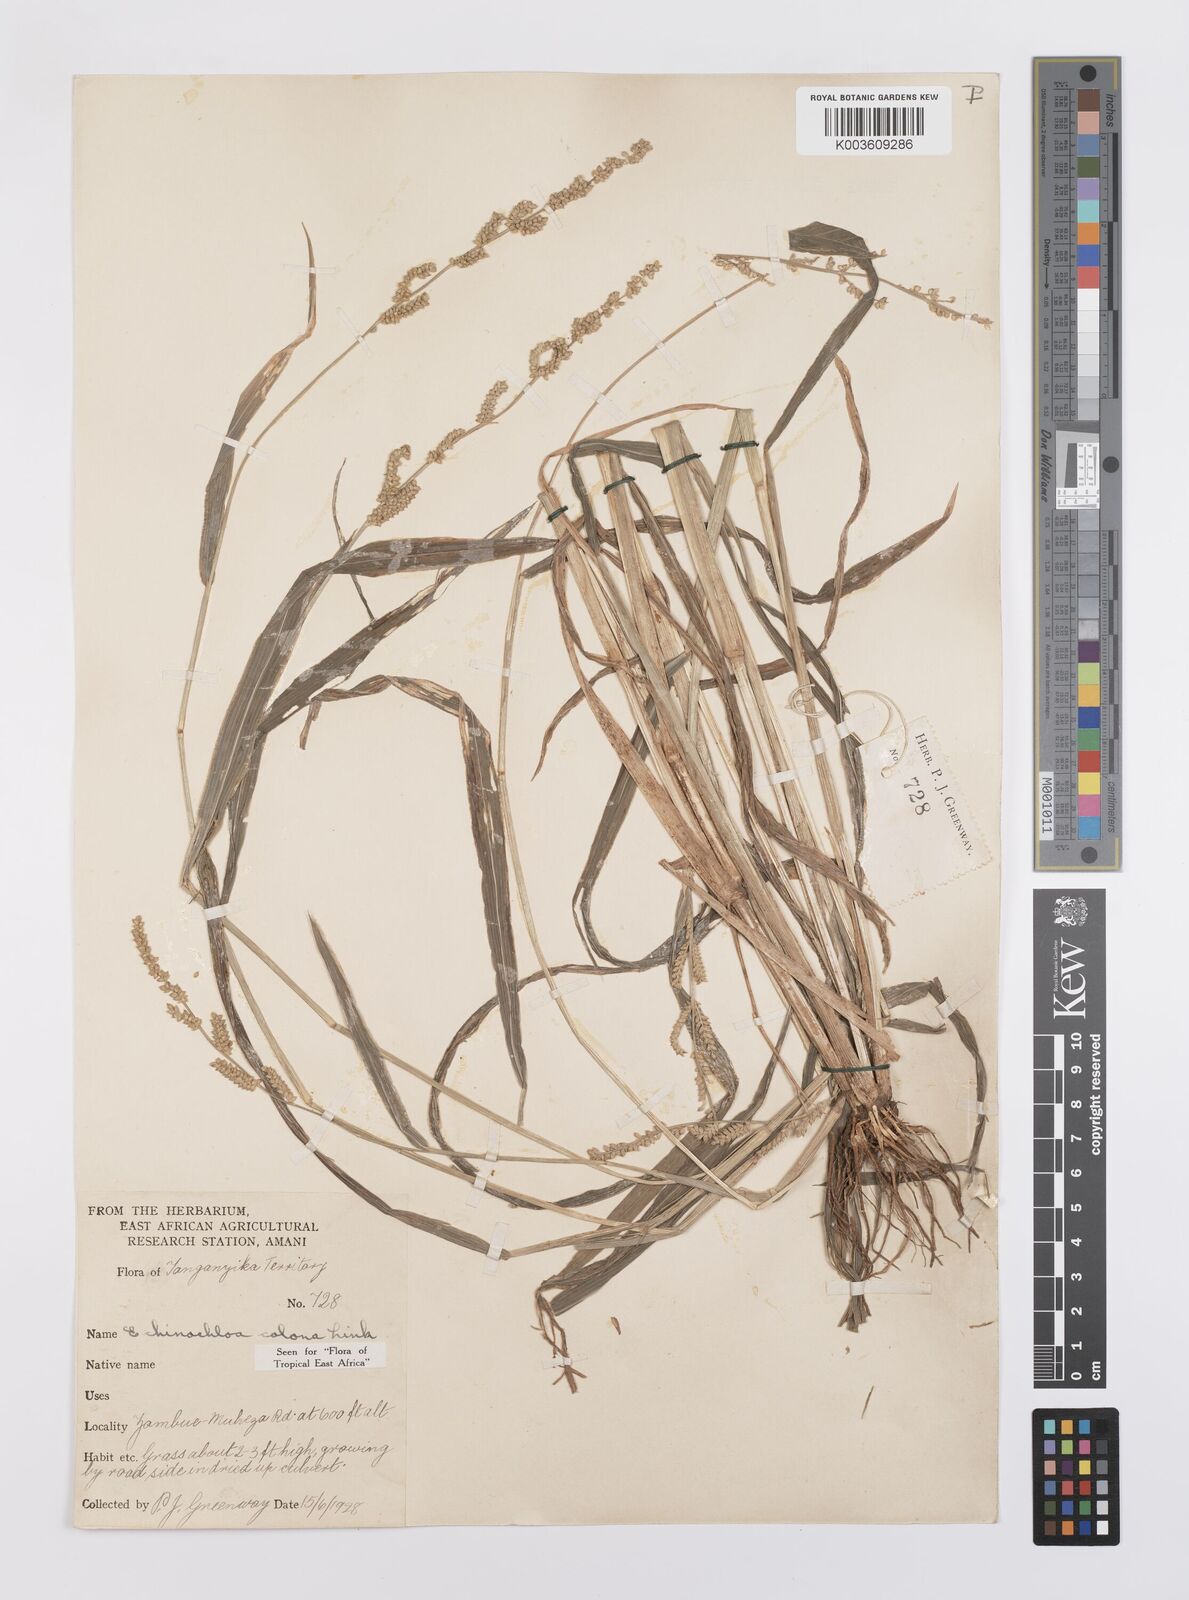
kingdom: Plantae
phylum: Tracheophyta
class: Liliopsida
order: Poales
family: Poaceae
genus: Echinochloa
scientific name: Echinochloa colonum
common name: Jungle rice
